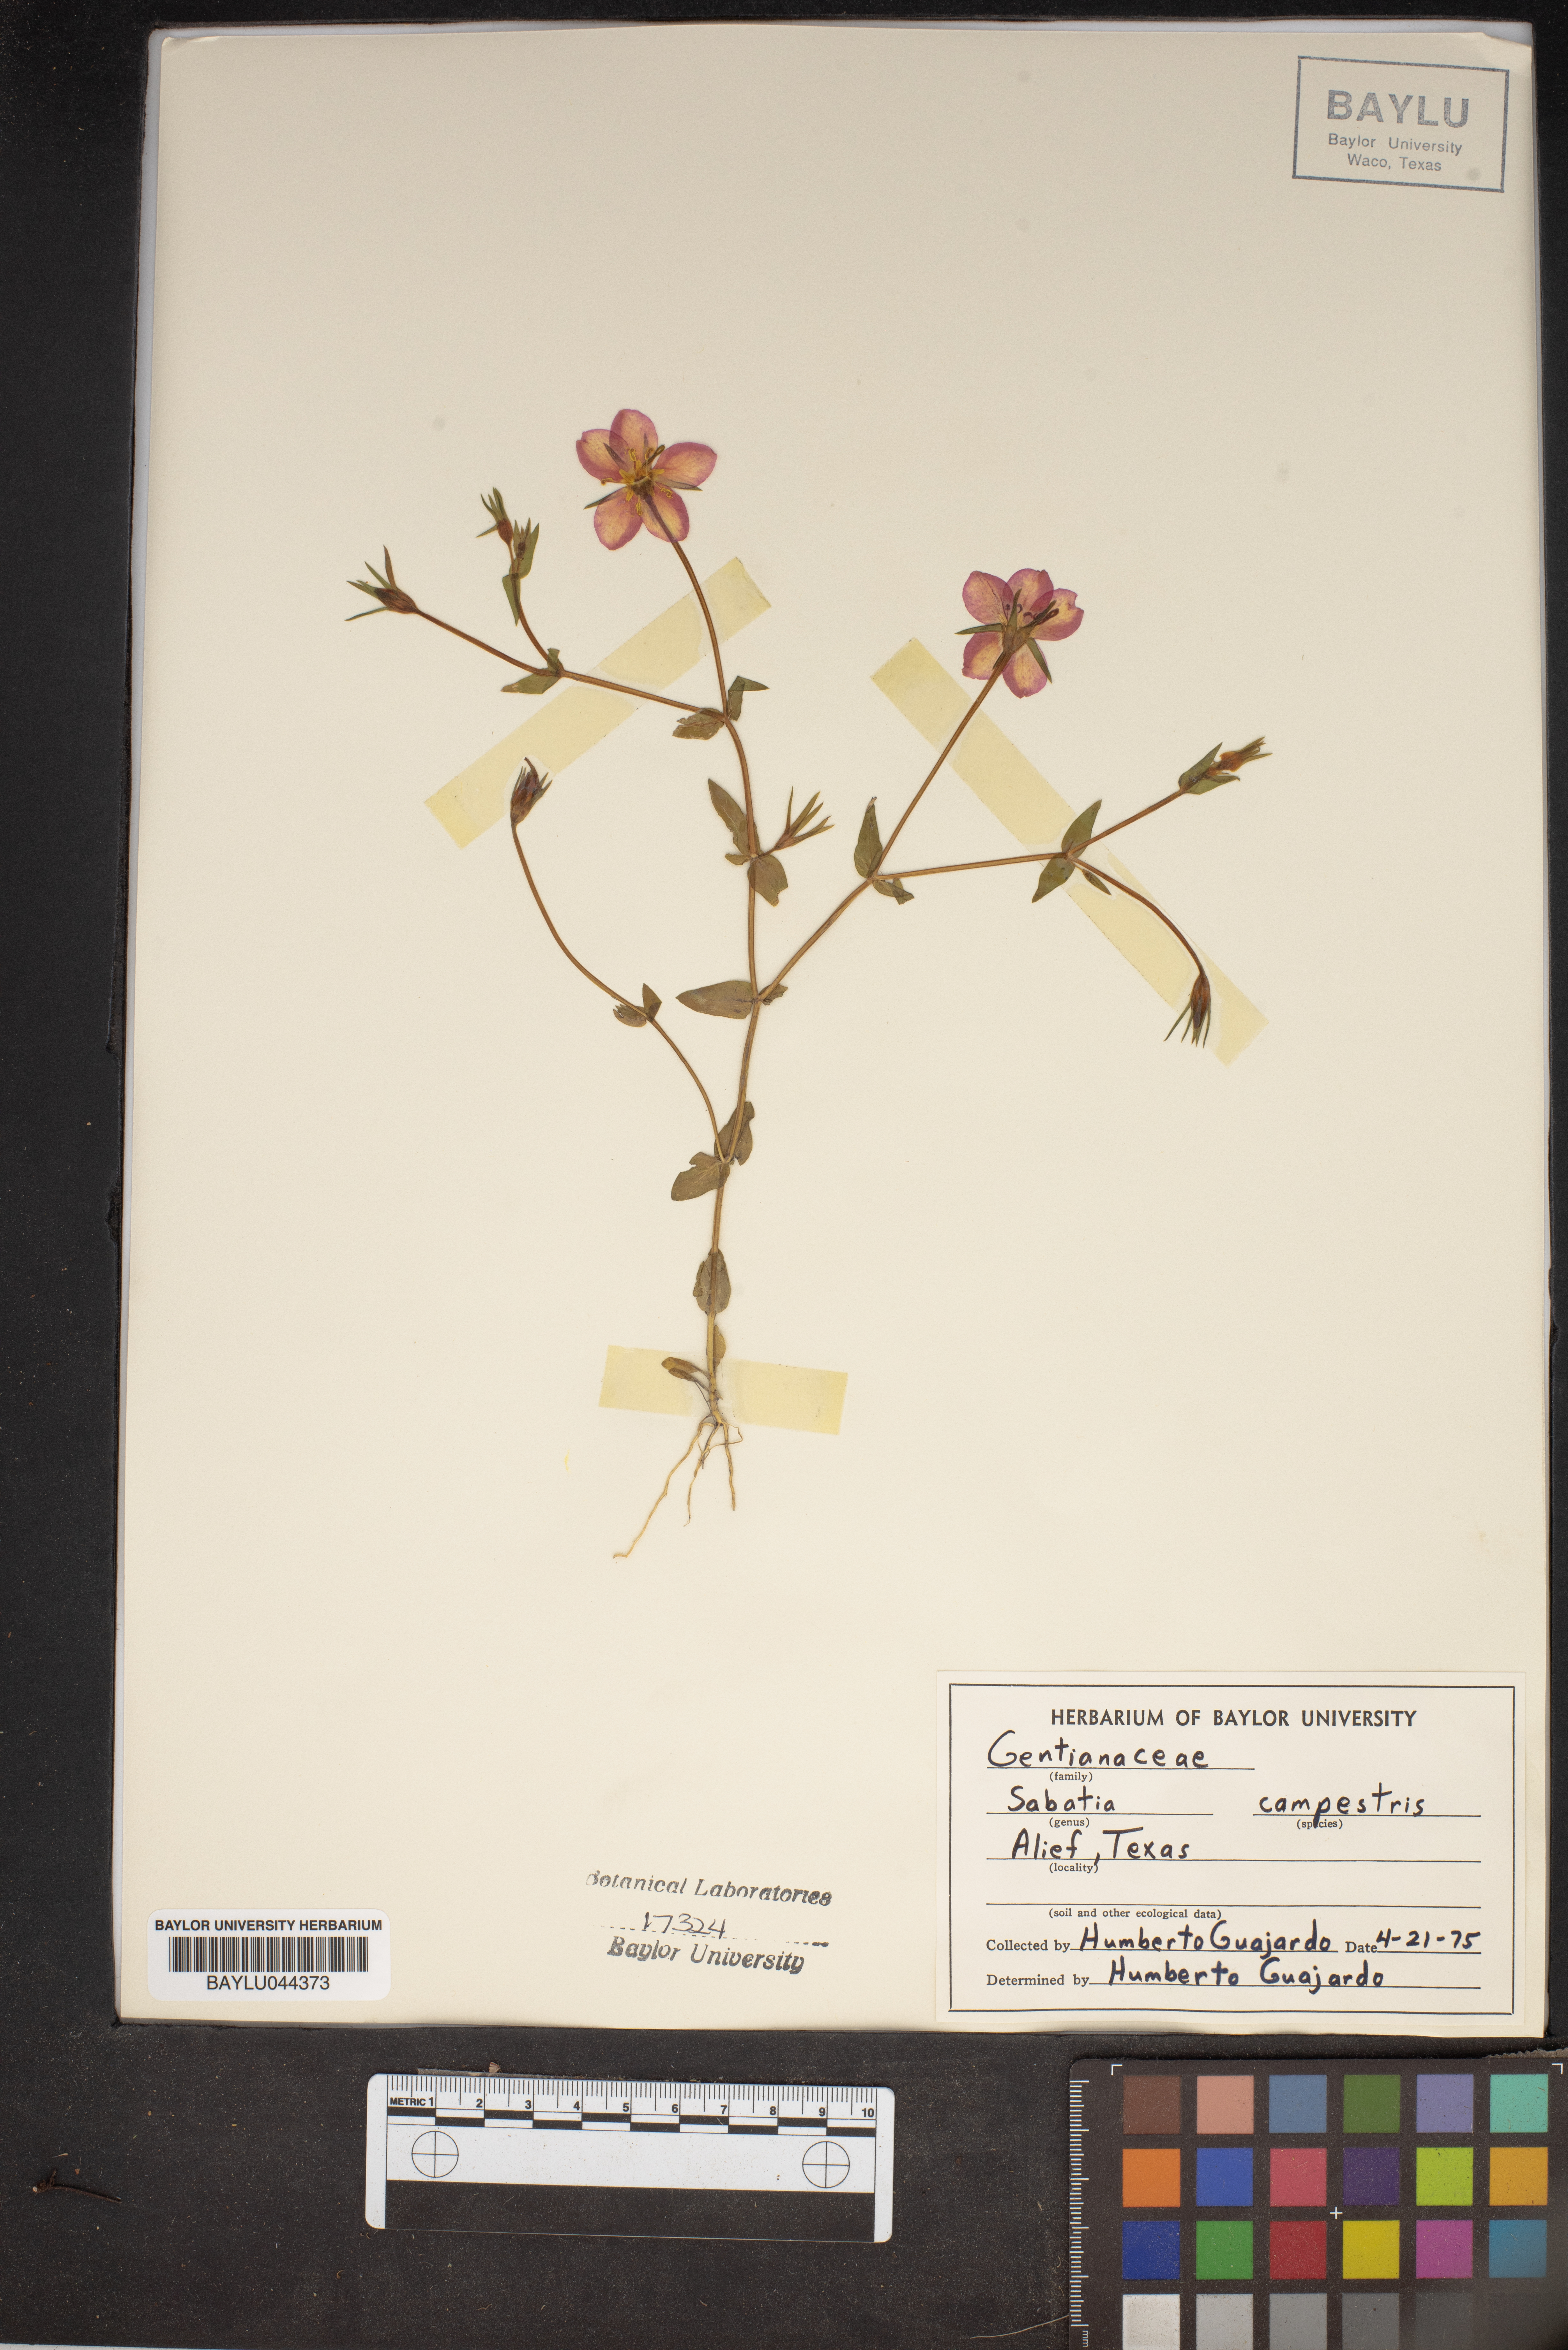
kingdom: Plantae
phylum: Tracheophyta
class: Magnoliopsida
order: Gentianales
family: Gentianaceae
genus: Sabatia
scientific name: Sabatia campestris
